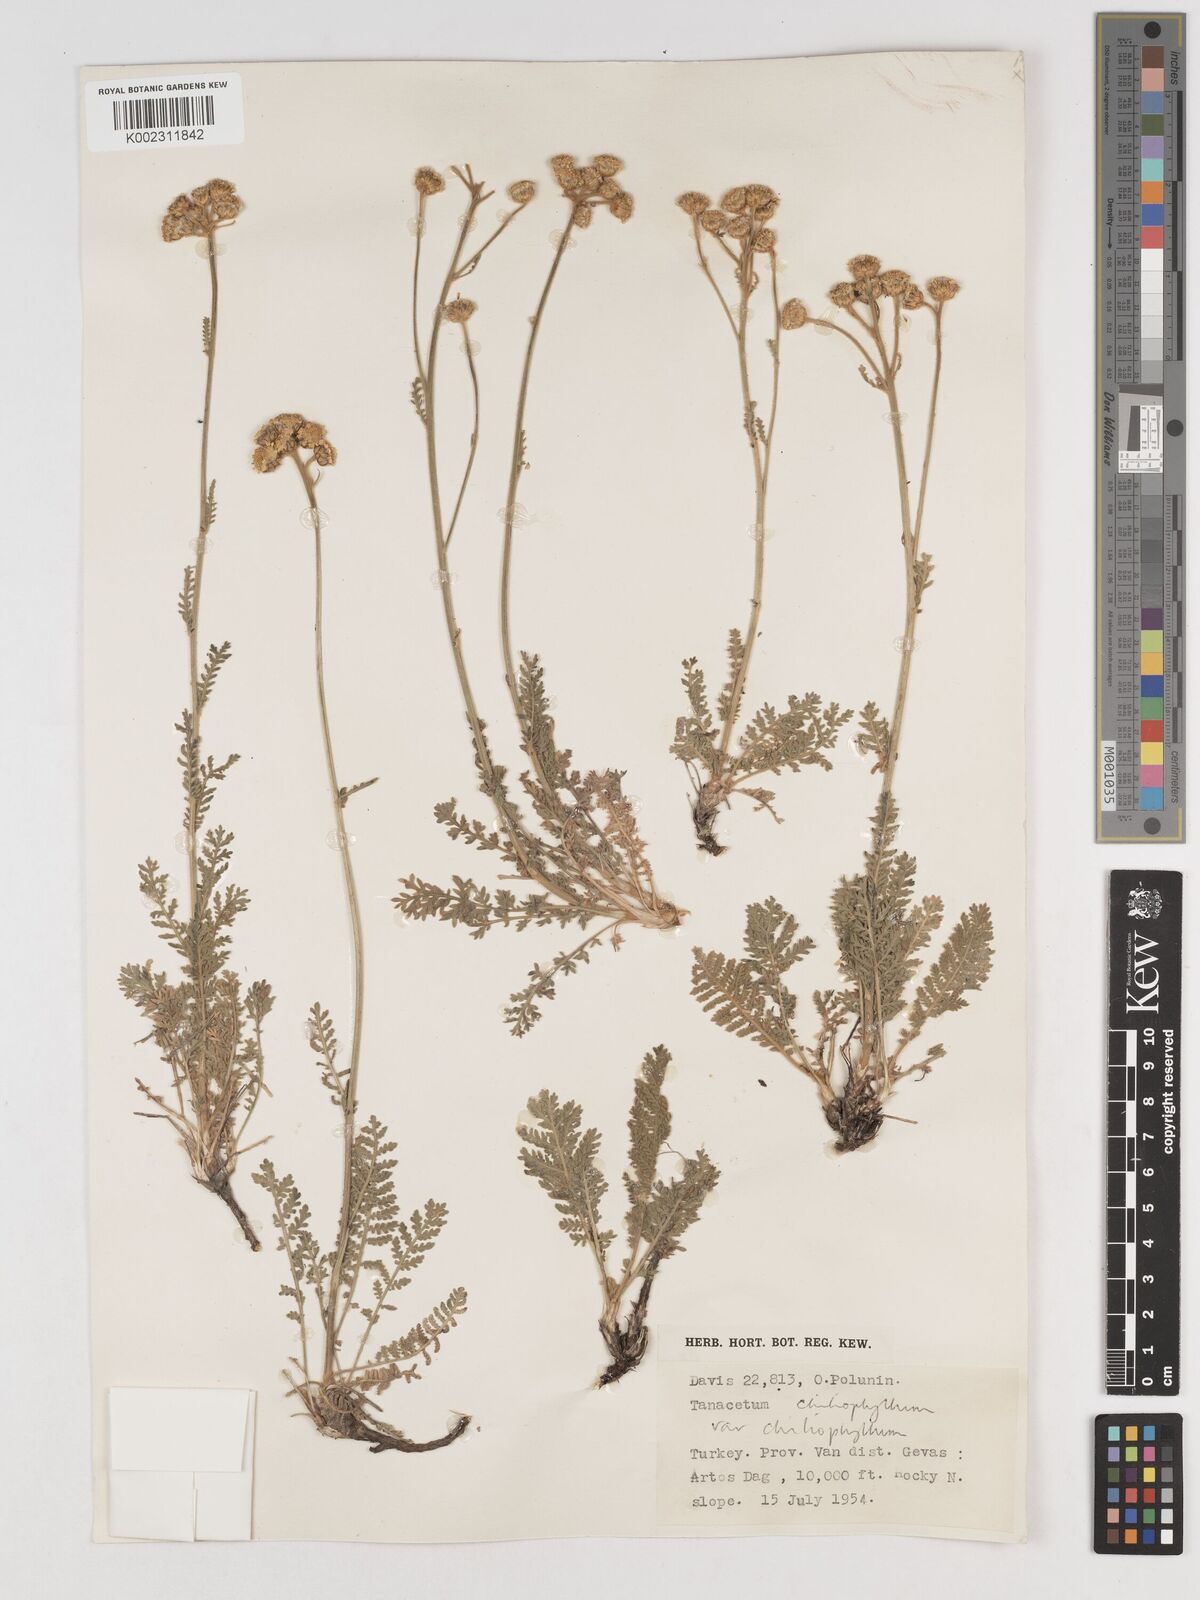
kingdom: Plantae
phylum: Tracheophyta
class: Magnoliopsida
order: Asterales
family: Asteraceae
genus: Tanacetum
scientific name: Tanacetum aureum
